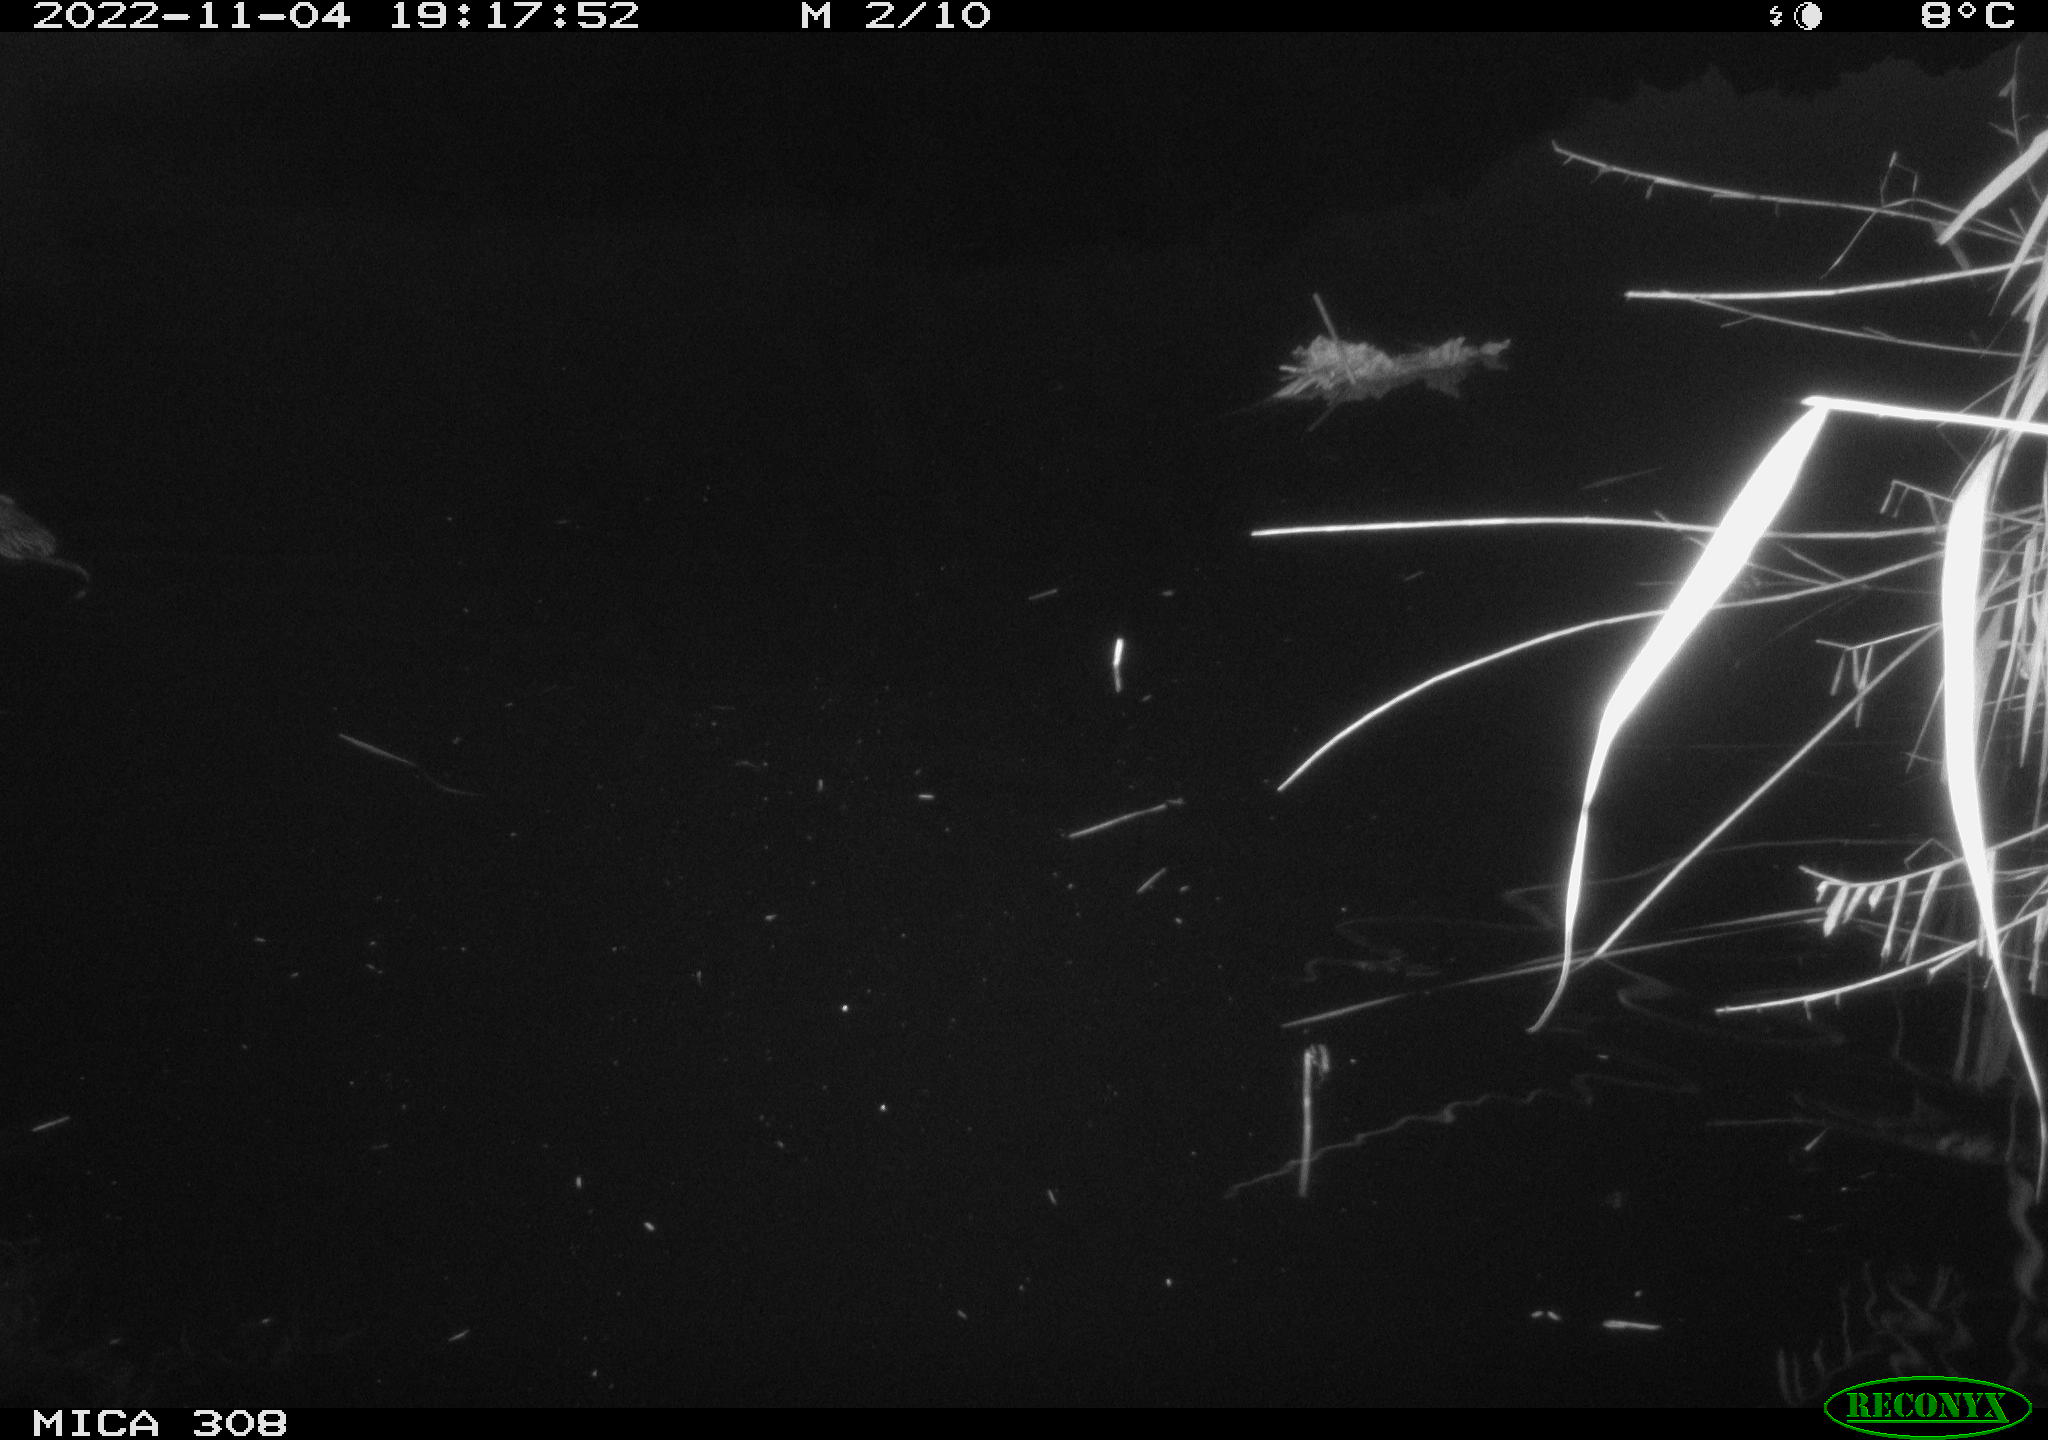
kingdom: Animalia
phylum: Chordata
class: Mammalia
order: Rodentia
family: Cricetidae
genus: Ondatra
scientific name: Ondatra zibethicus
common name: Muskrat
